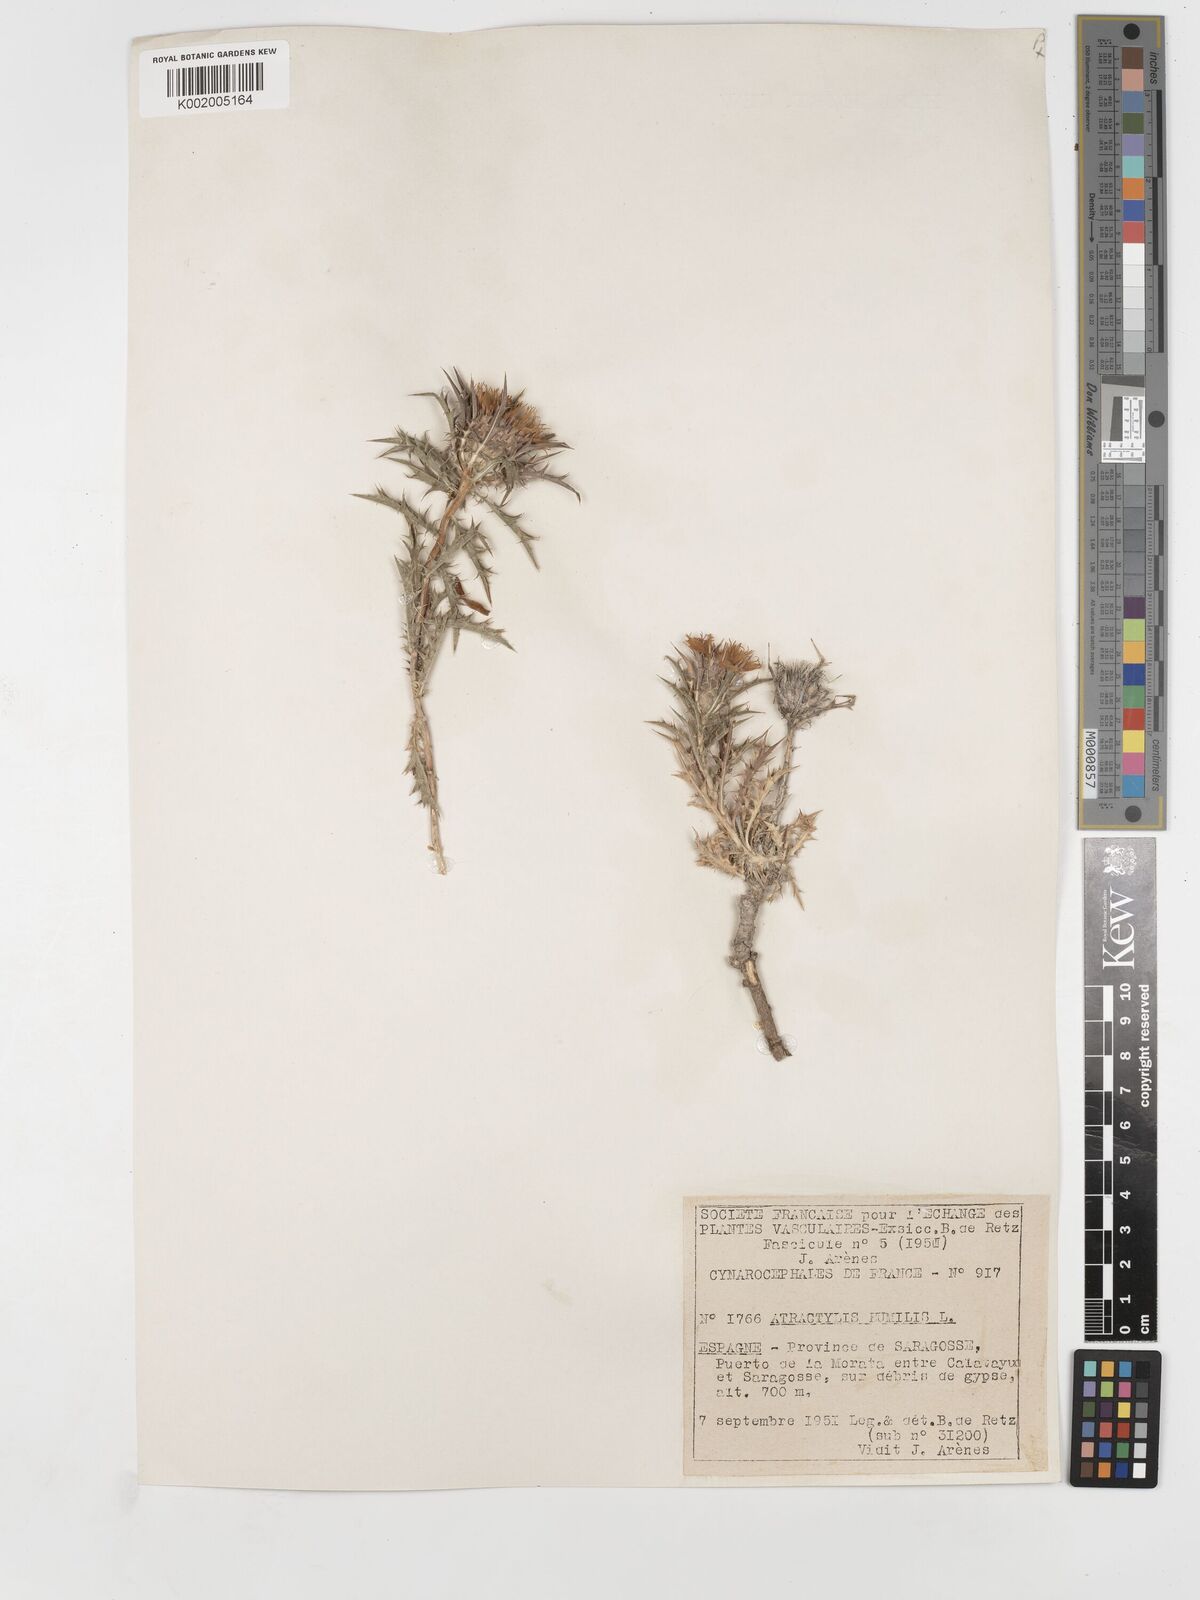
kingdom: Plantae
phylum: Tracheophyta
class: Magnoliopsida
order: Asterales
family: Asteraceae
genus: Atractylis
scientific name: Atractylis humilis
